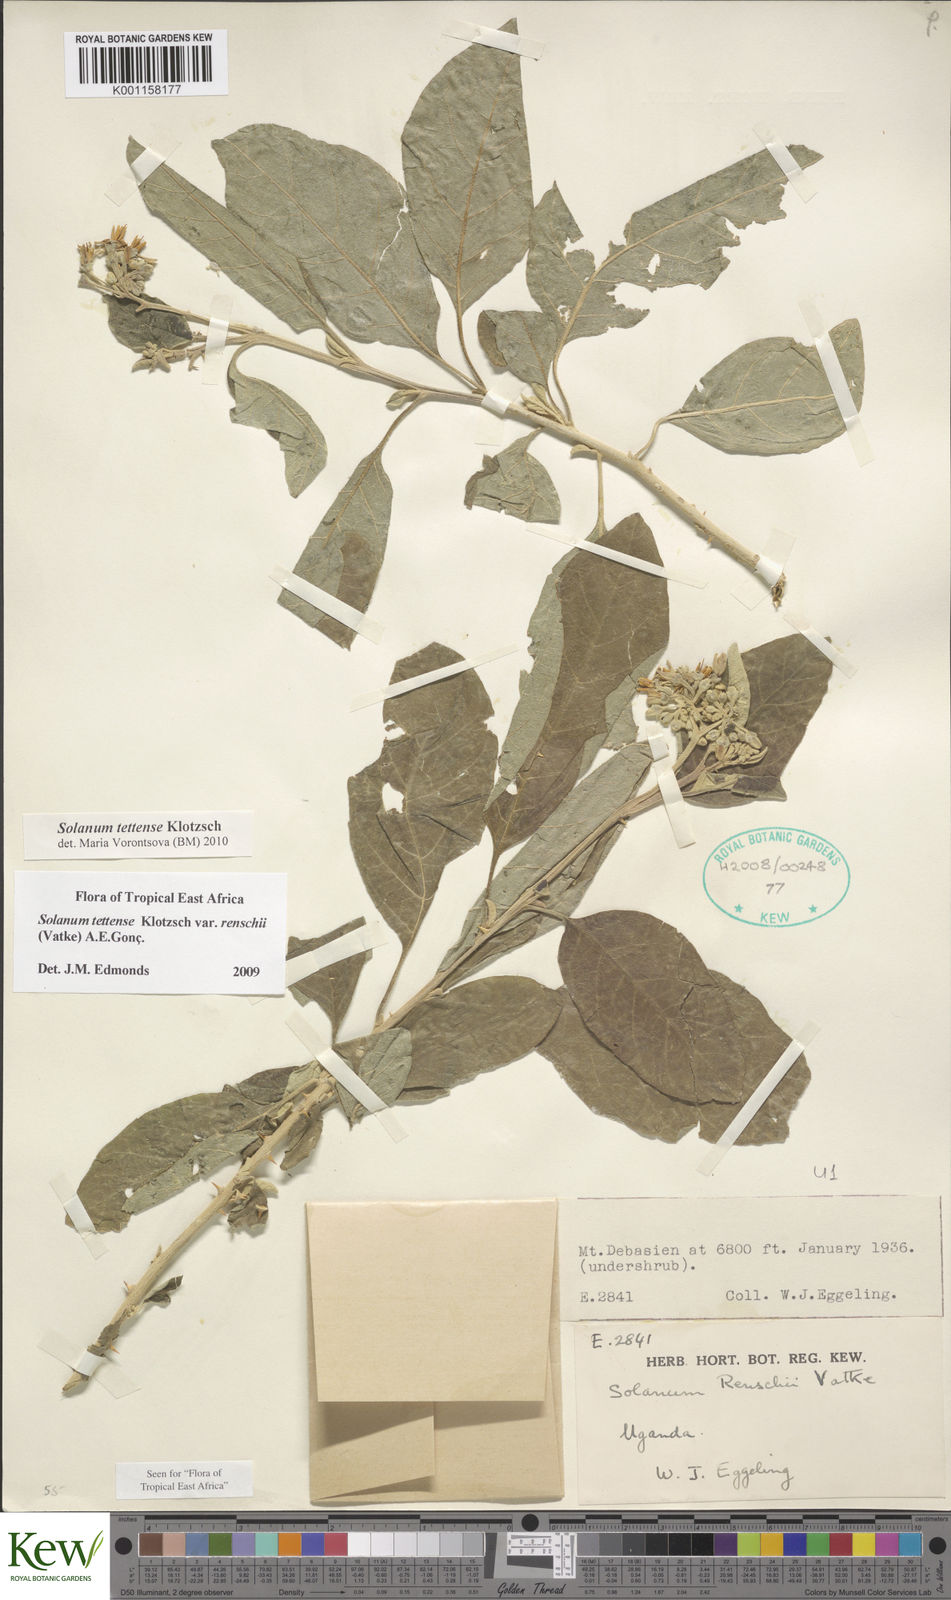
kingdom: Plantae
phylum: Tracheophyta
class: Magnoliopsida
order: Solanales
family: Solanaceae
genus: Solanum
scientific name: Solanum tettense
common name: Mozambique bitter apple
